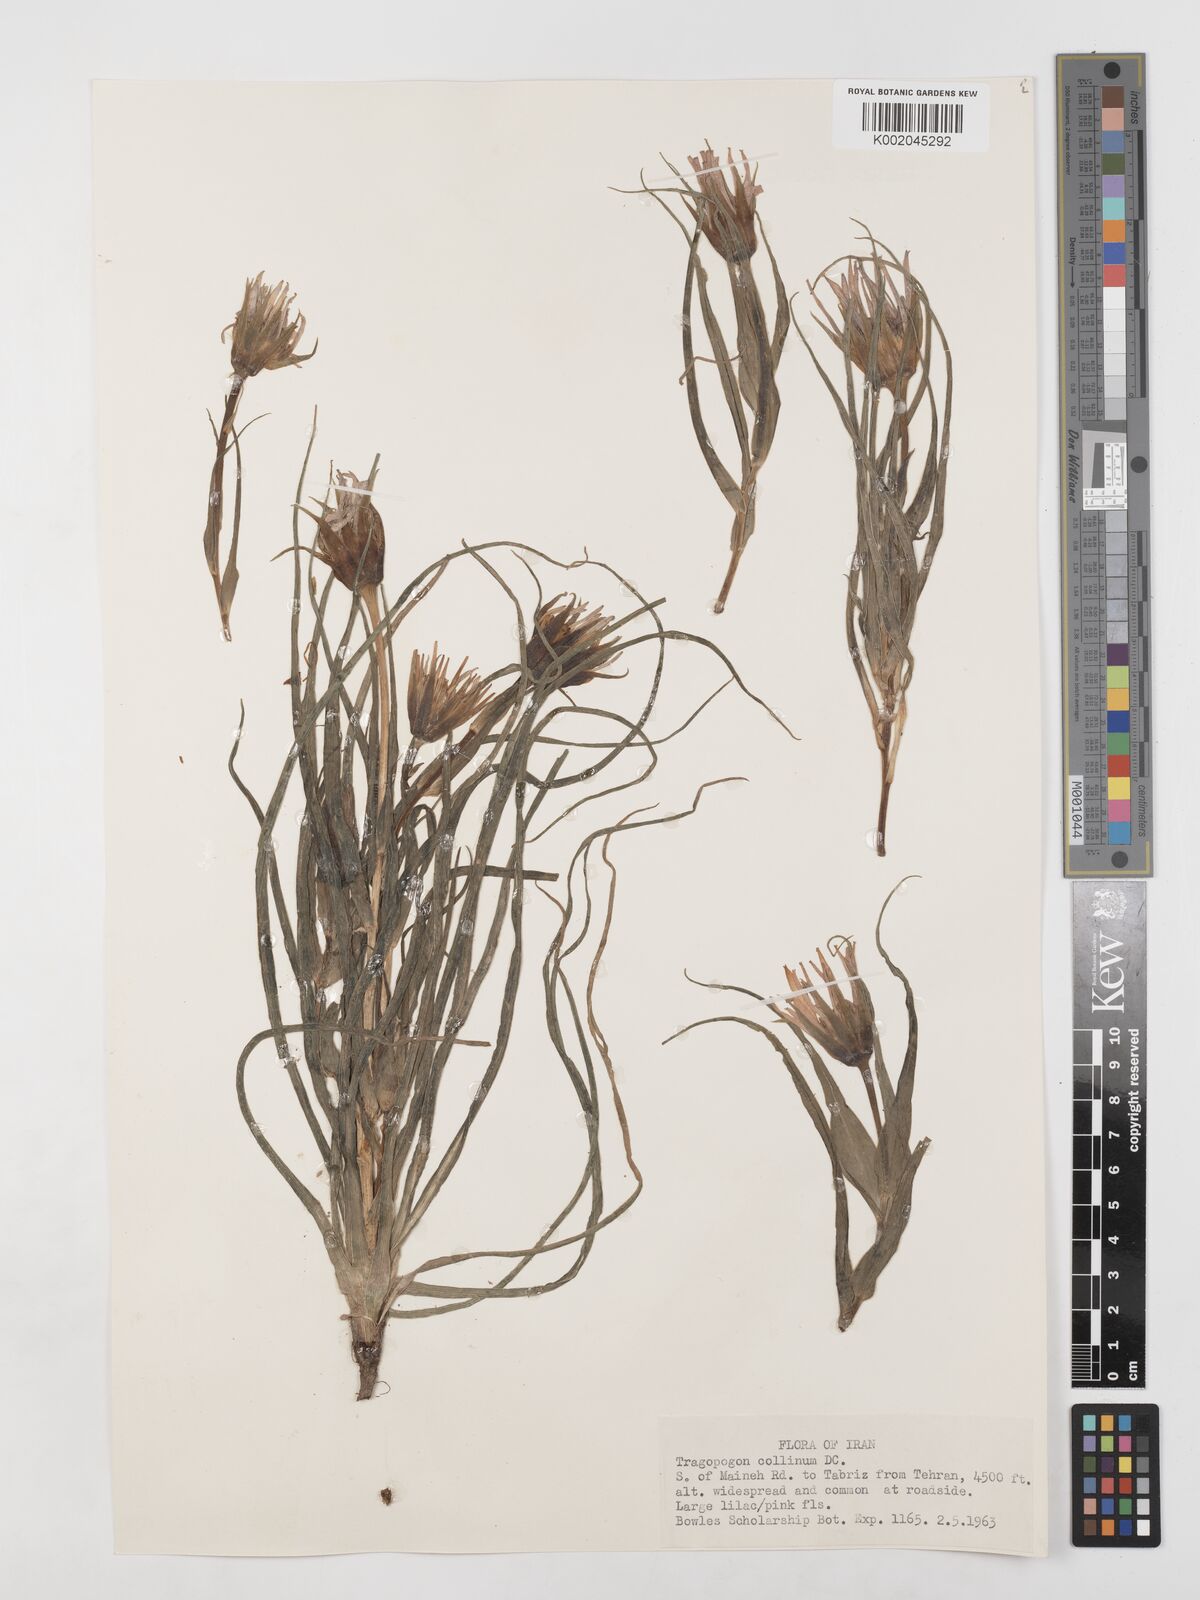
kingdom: Plantae
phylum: Tracheophyta
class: Magnoliopsida
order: Asterales
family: Asteraceae
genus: Tragopogon
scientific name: Tragopogon collinus
